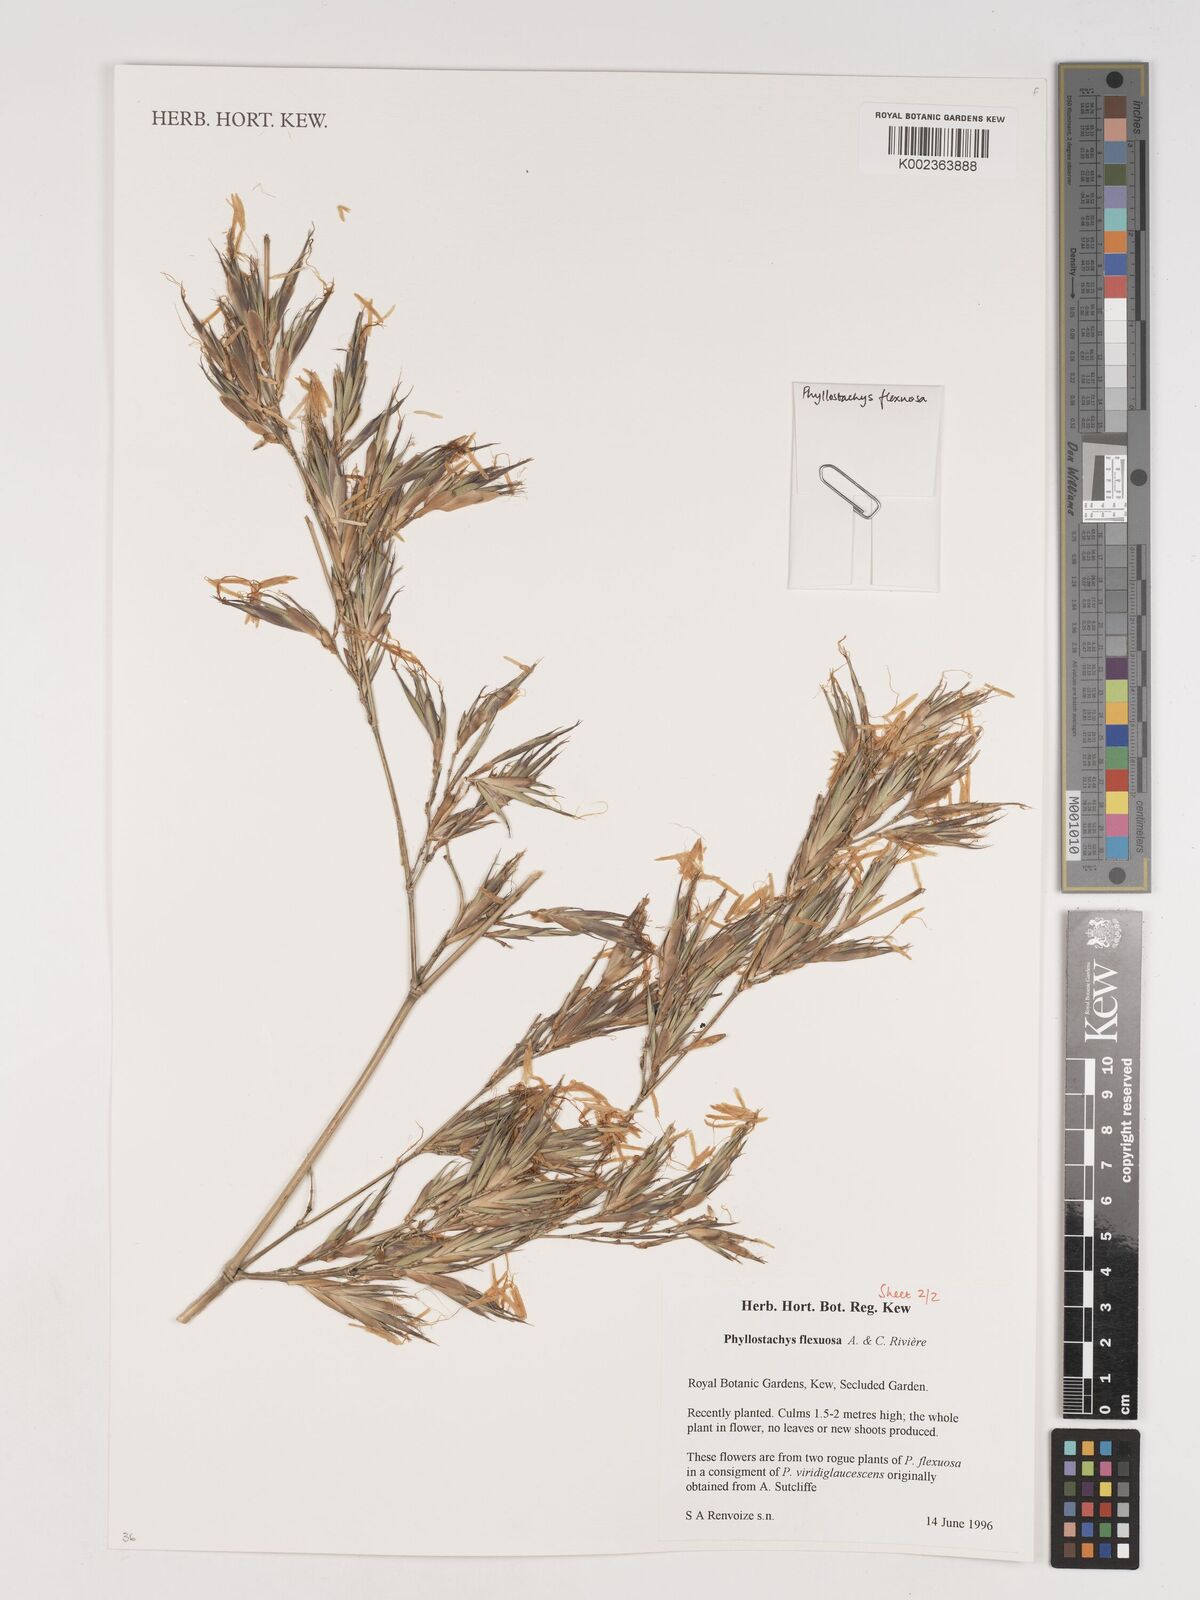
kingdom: Plantae
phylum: Tracheophyta
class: Liliopsida
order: Poales
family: Poaceae
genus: Phyllostachys
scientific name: Phyllostachys flexuosa
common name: Drooping timber bamboo
